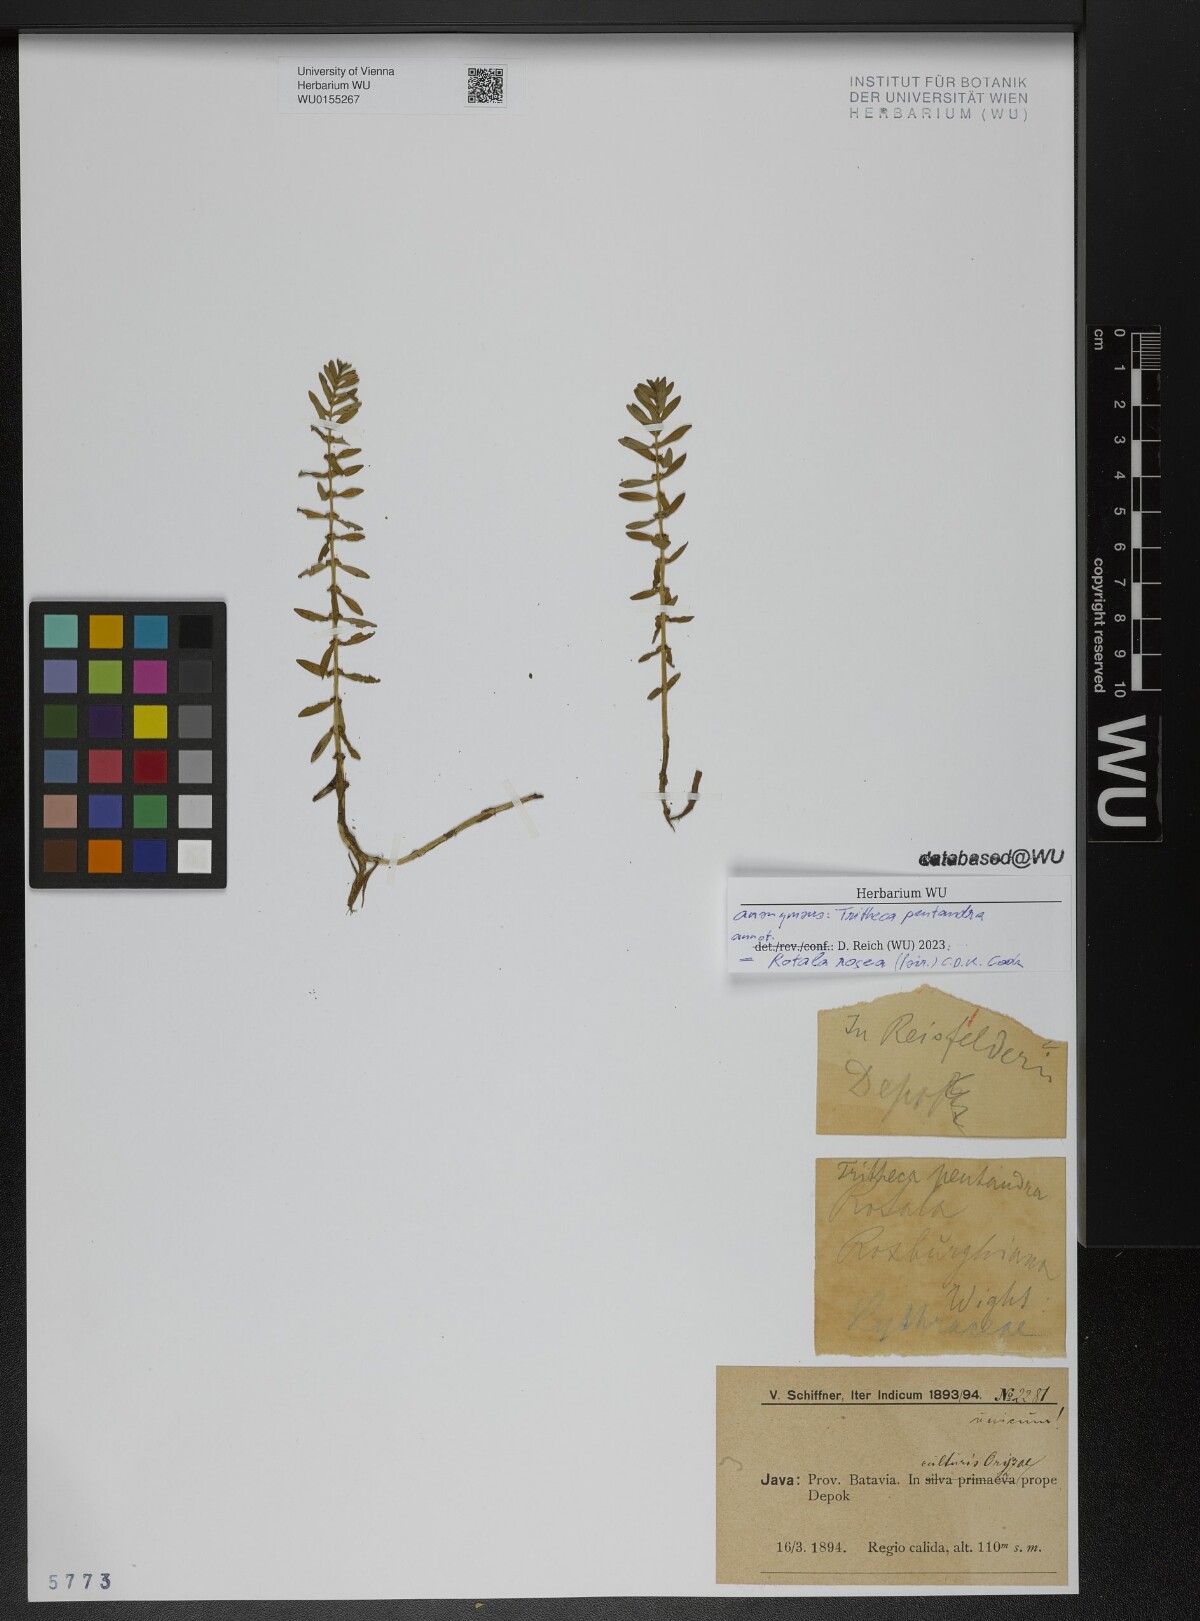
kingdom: Plantae
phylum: Tracheophyta
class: Magnoliopsida
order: Myrtales
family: Lythraceae
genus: Rotala
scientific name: Rotala rosea
